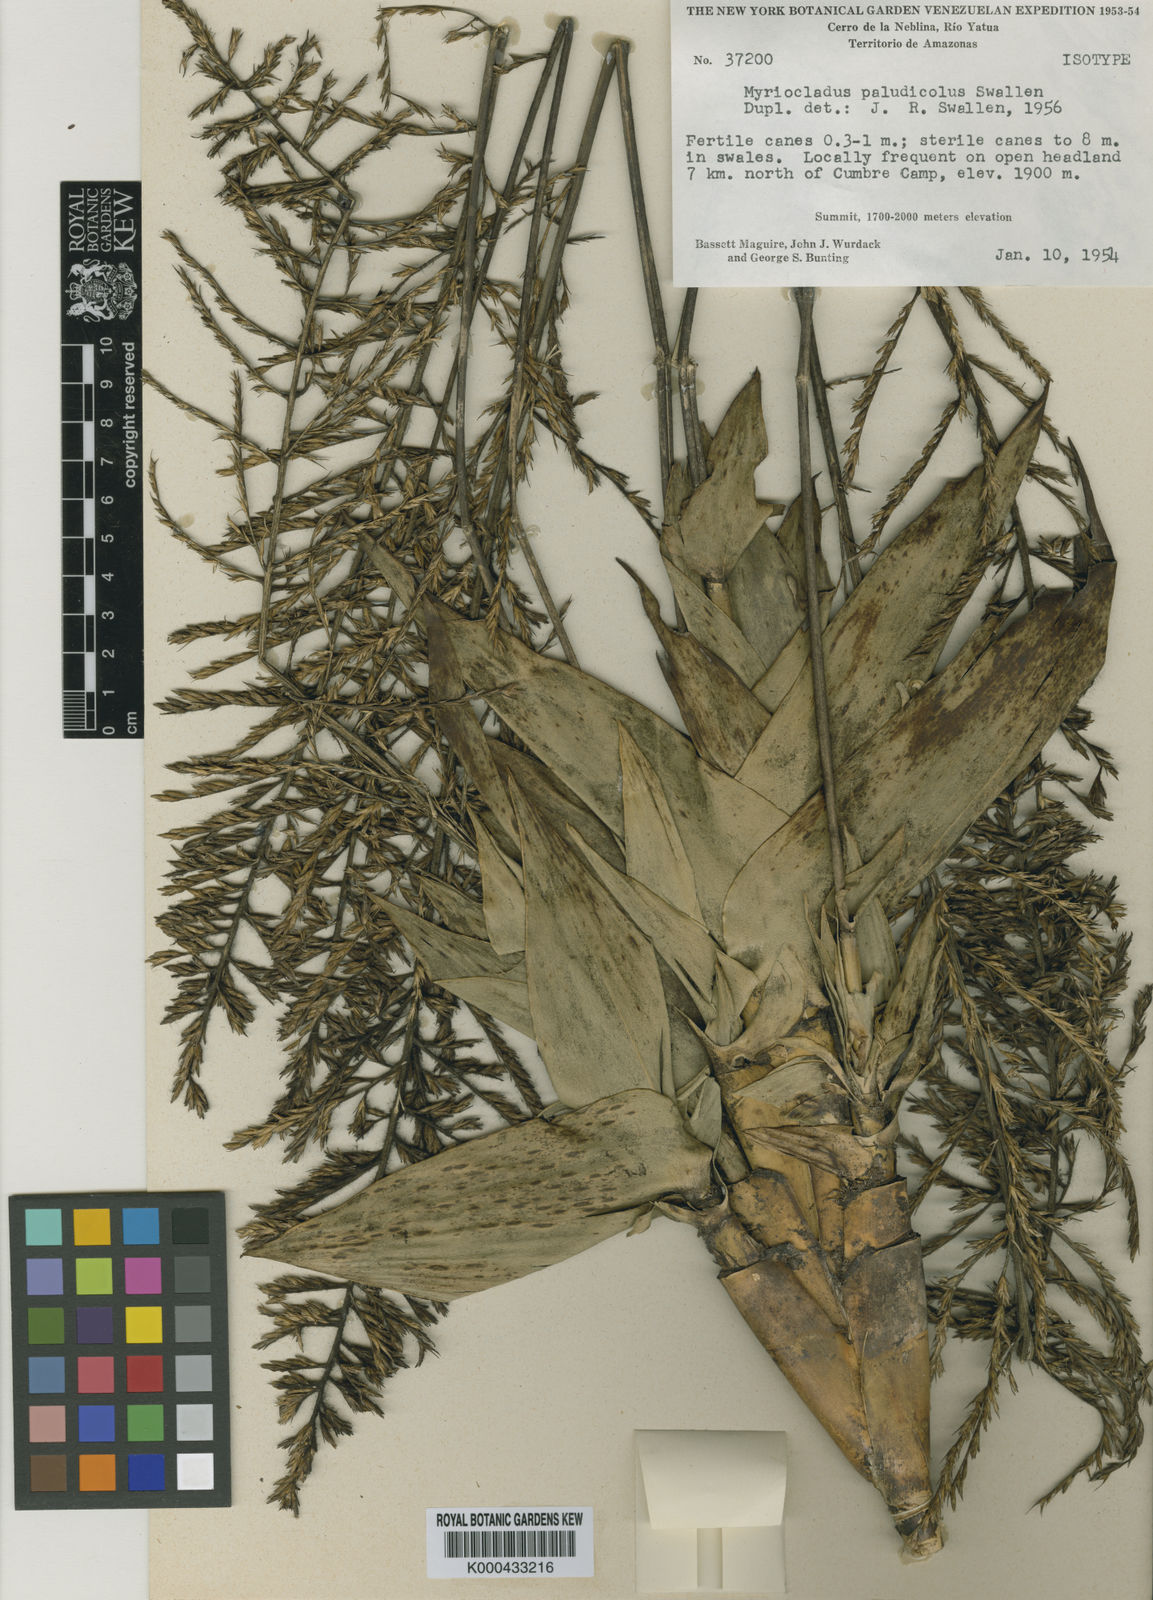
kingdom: Plantae
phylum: Tracheophyta
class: Liliopsida
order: Poales
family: Poaceae
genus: Myriocladus
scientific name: Myriocladus paludicola
